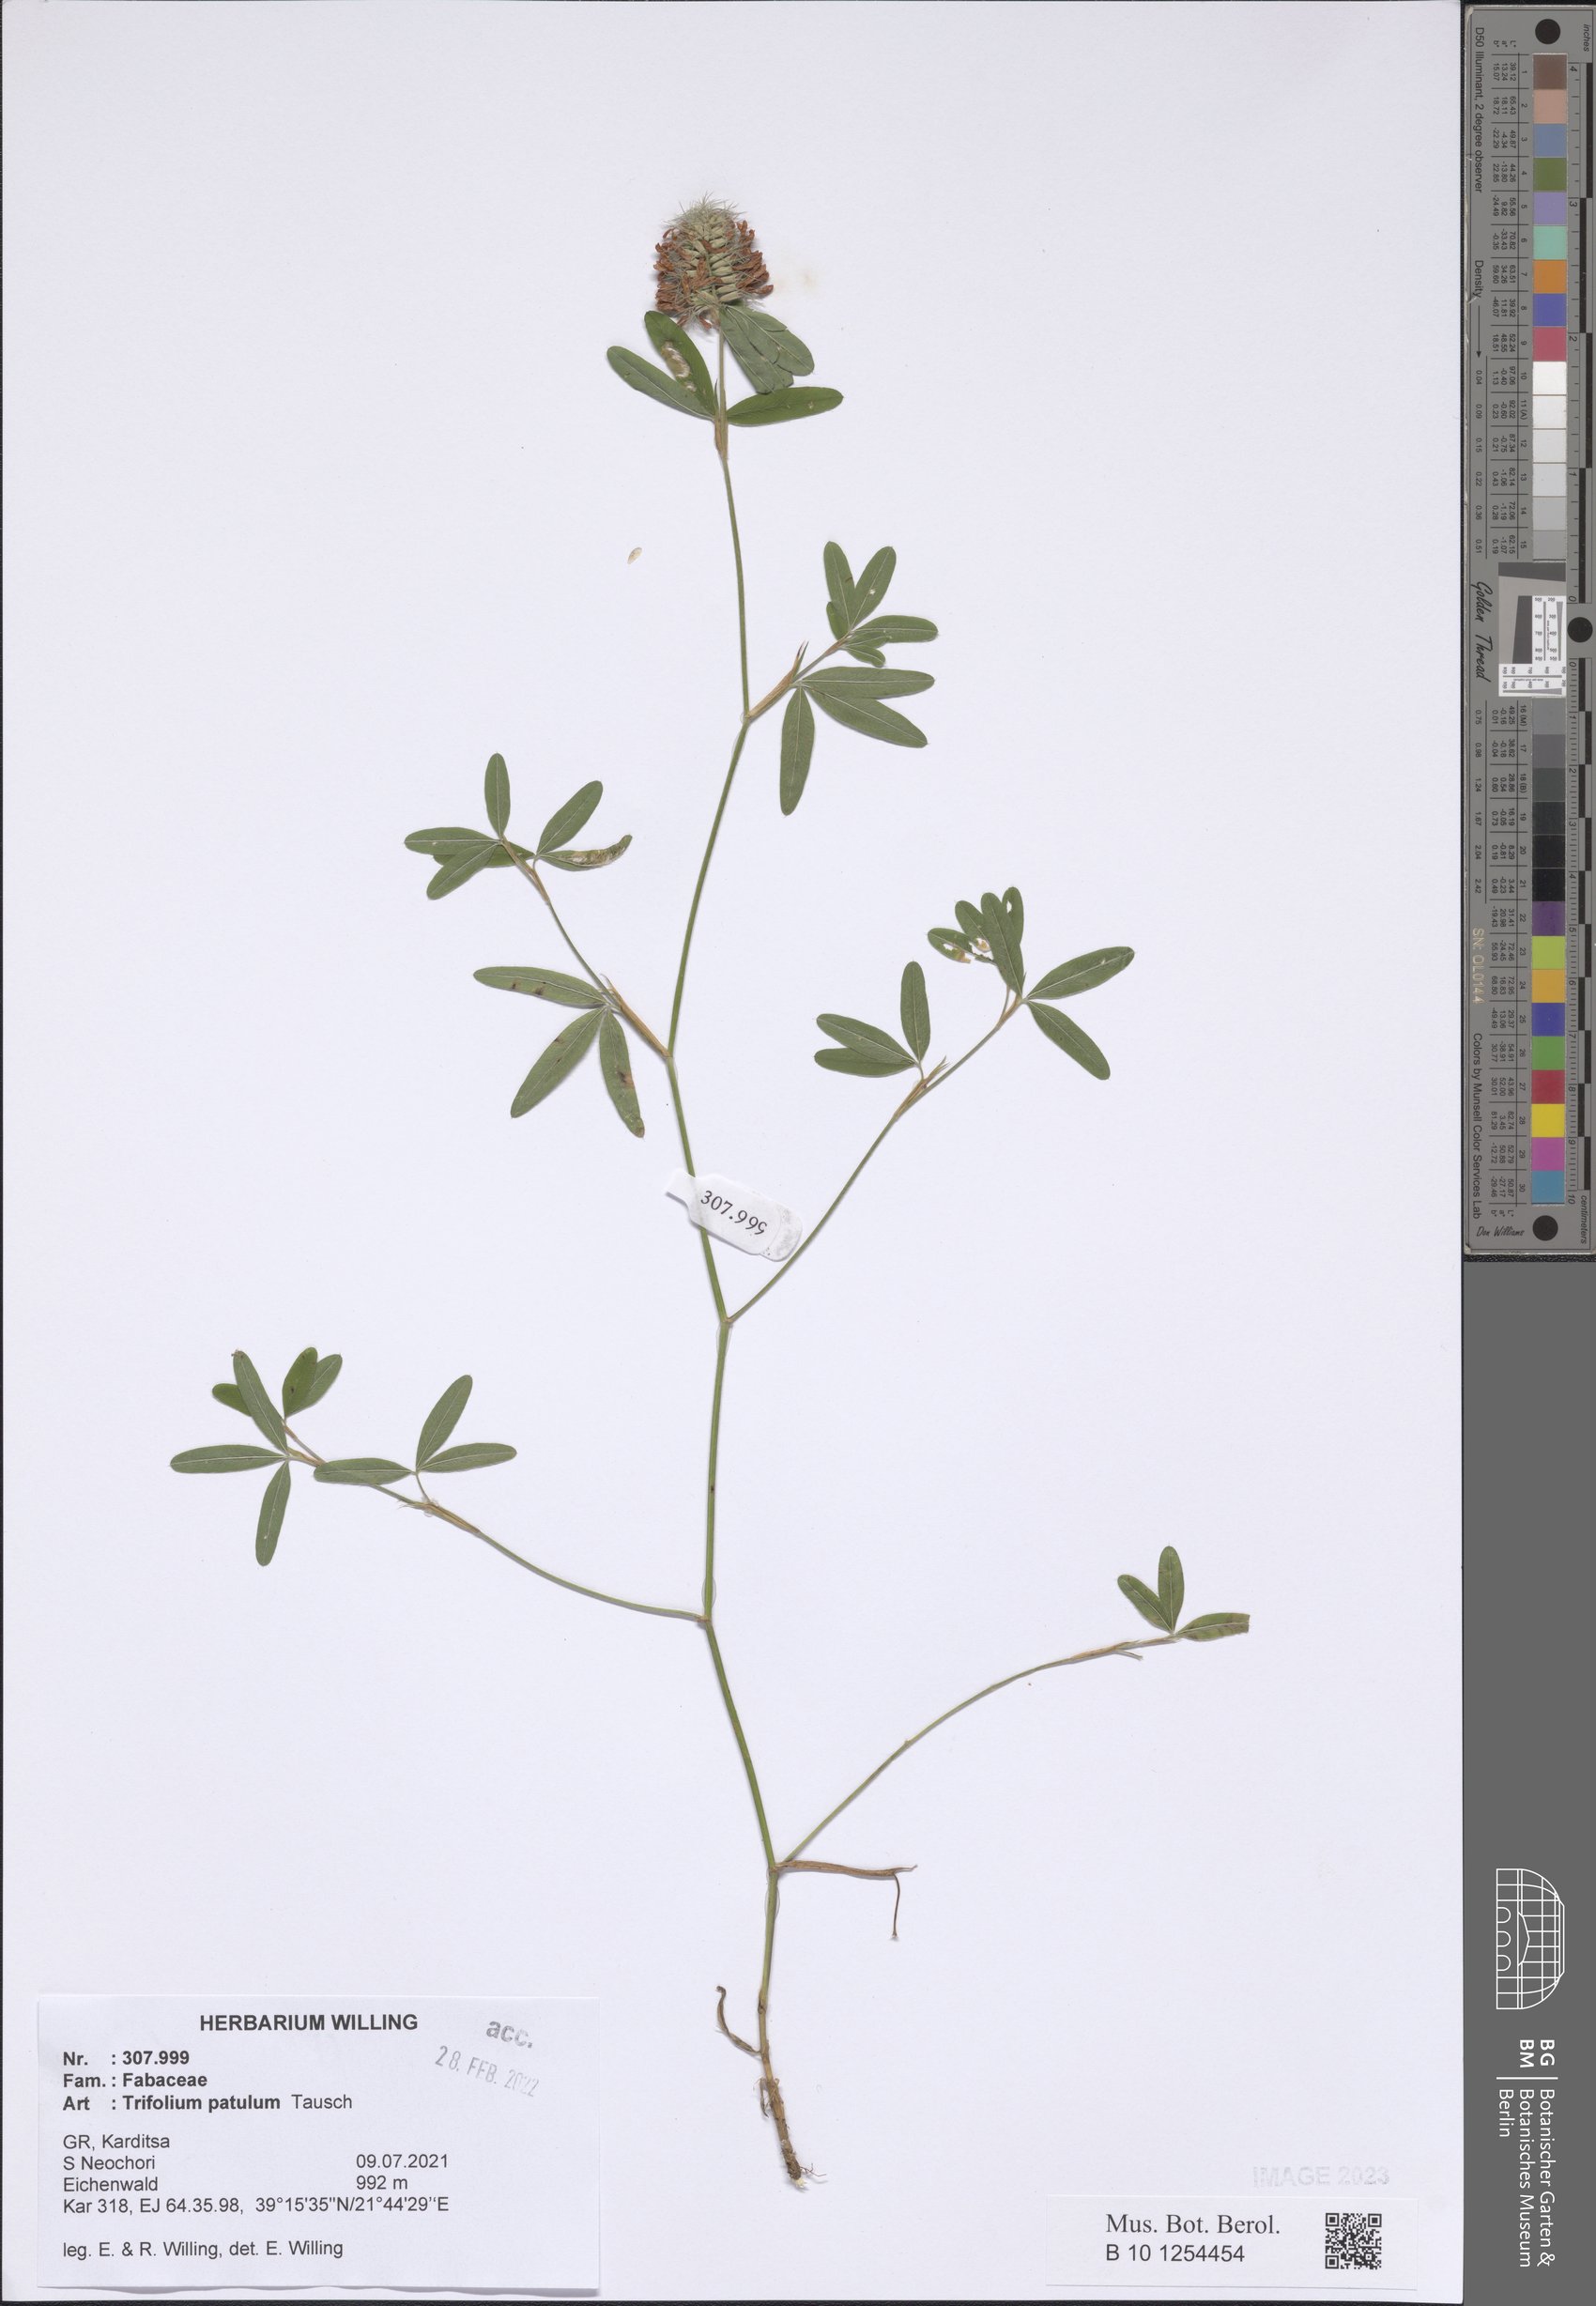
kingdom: Plantae
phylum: Tracheophyta
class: Magnoliopsida
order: Fabales
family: Fabaceae
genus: Trifolium
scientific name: Trifolium patulum
